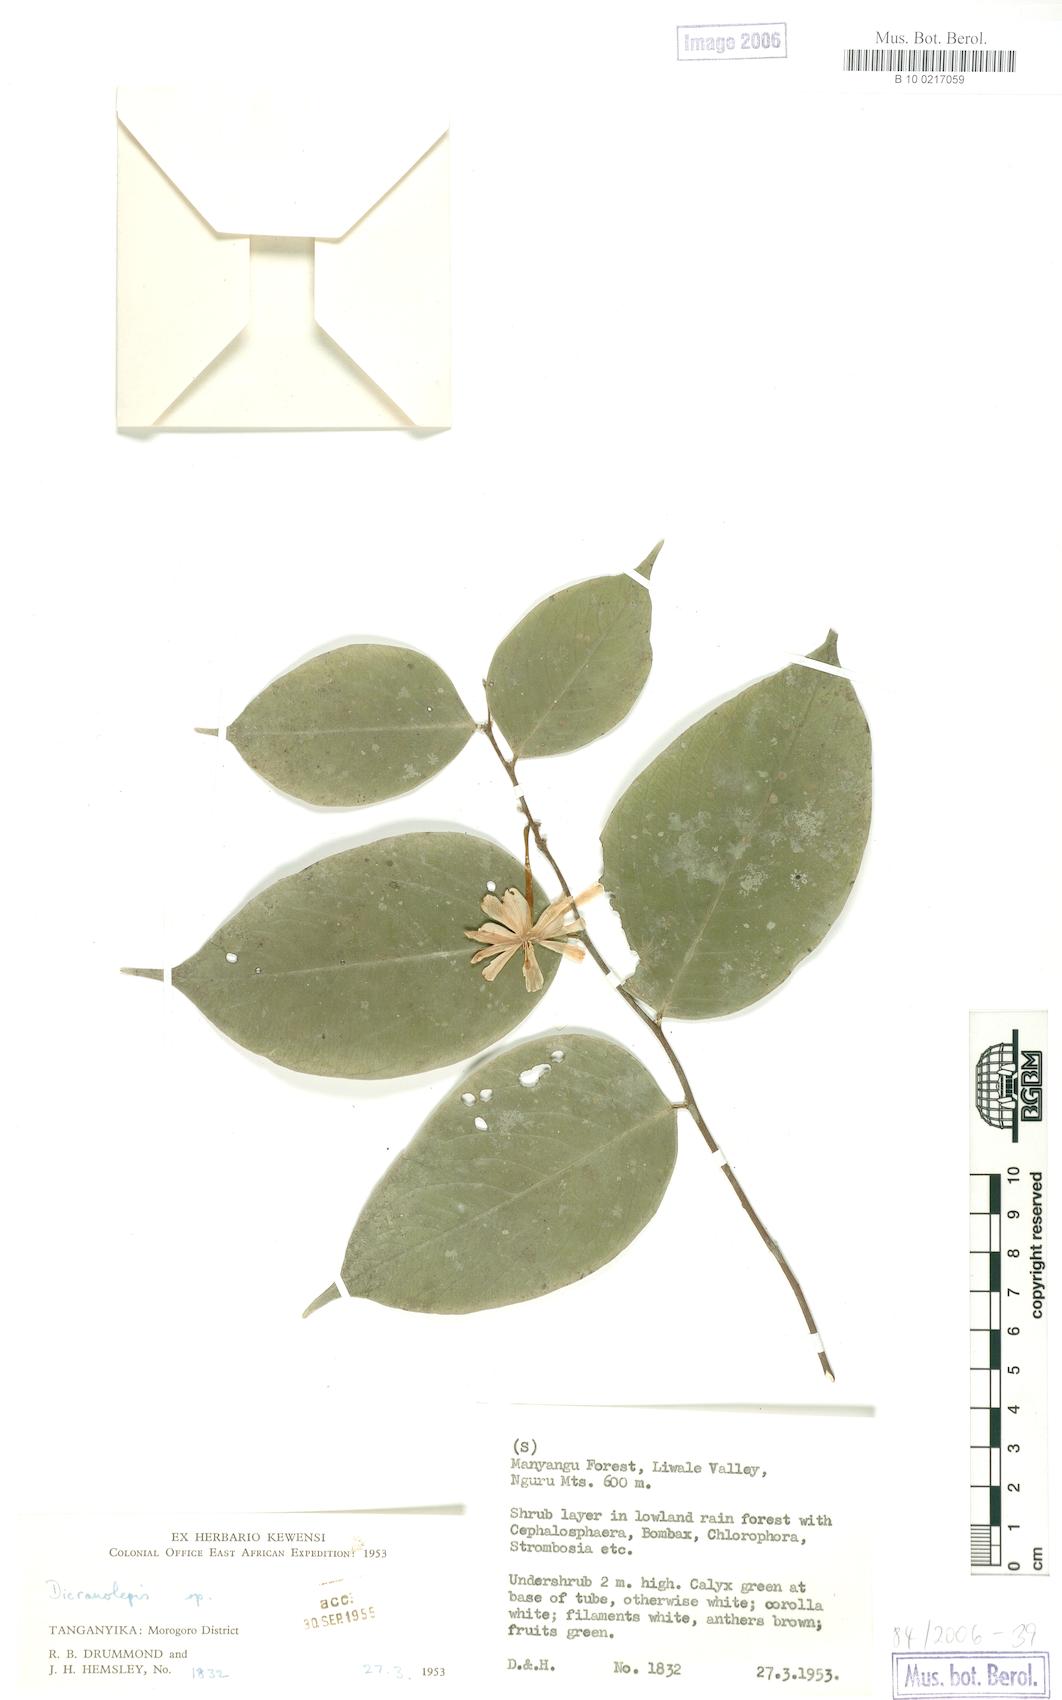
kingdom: Plantae
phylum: Tracheophyta
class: Magnoliopsida
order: Malvales
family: Thymelaeaceae
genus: Dicranolepis
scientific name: Dicranolepis usambarica
